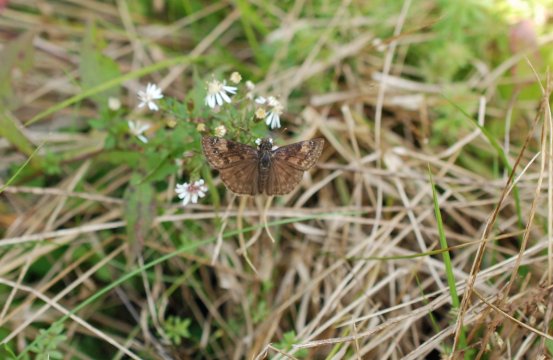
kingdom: Animalia
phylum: Arthropoda
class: Insecta
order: Lepidoptera
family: Hesperiidae
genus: Gesta
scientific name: Gesta
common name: Wild Indigo Duskywing
